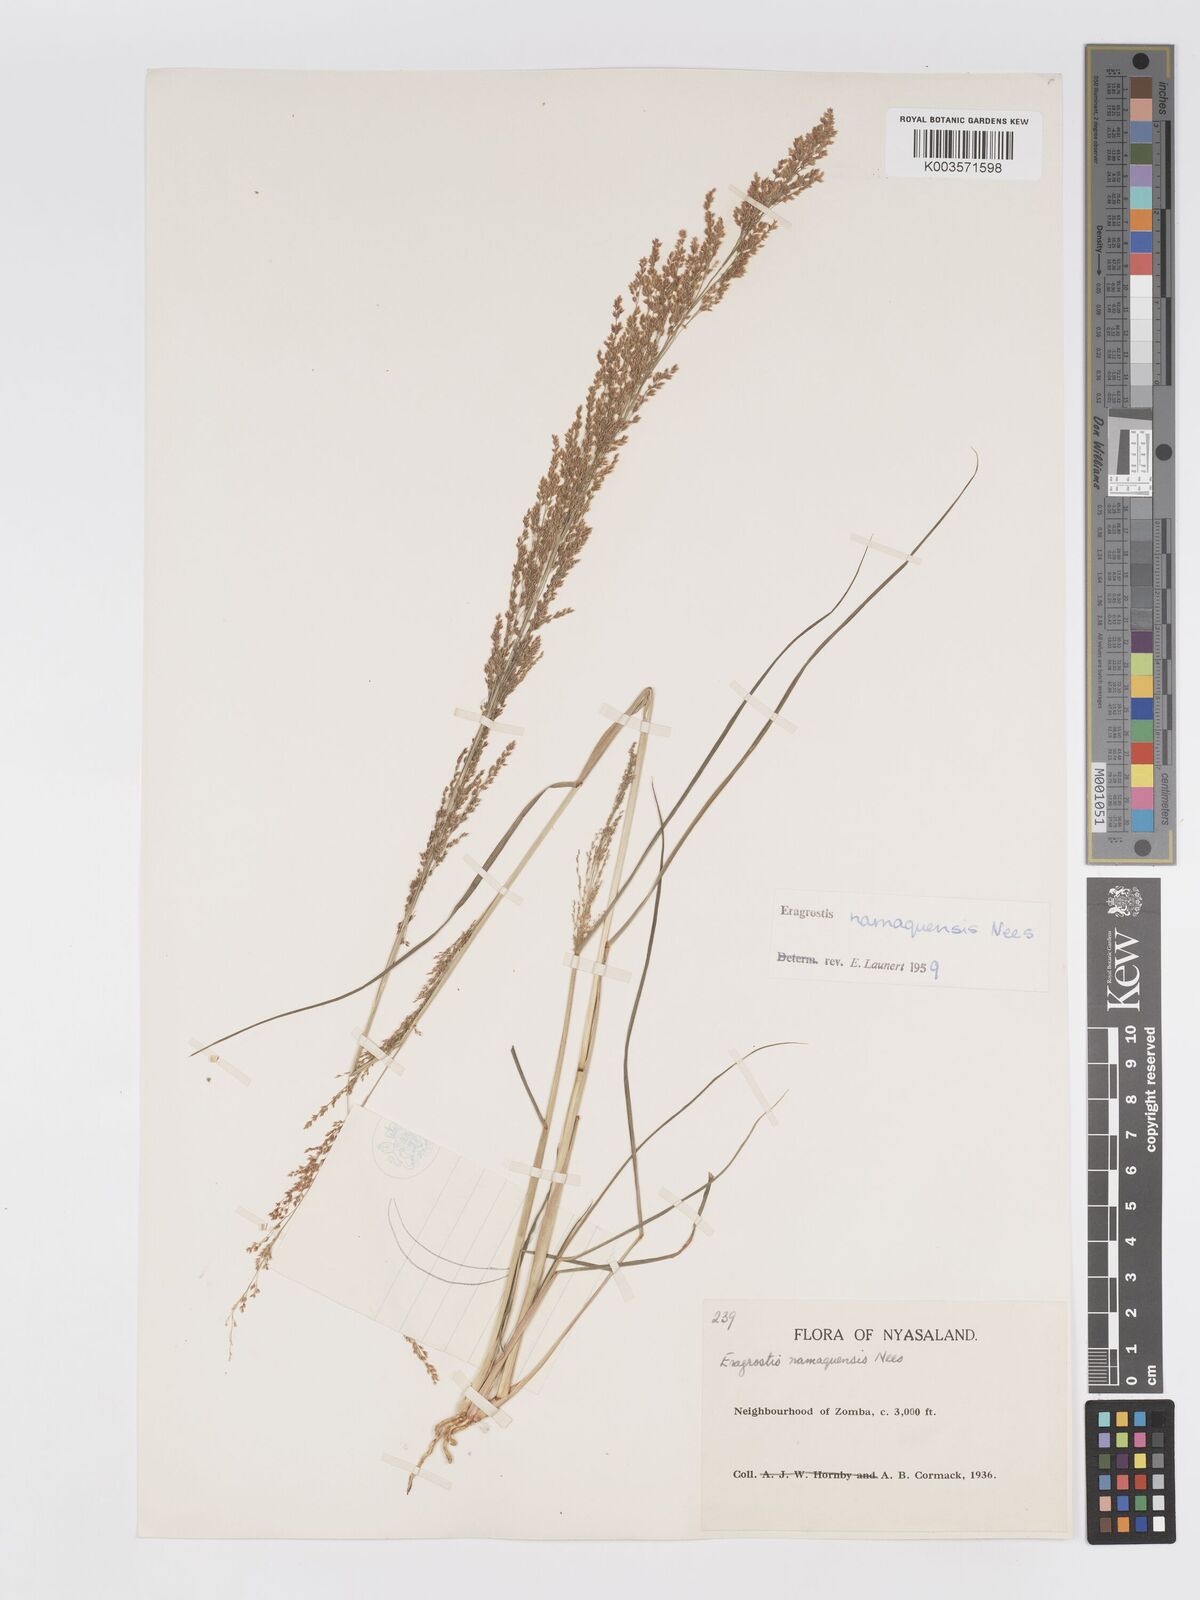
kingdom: Plantae
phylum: Tracheophyta
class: Liliopsida
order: Poales
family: Poaceae
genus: Eragrostis
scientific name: Eragrostis japonica
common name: Pond lovegrass
